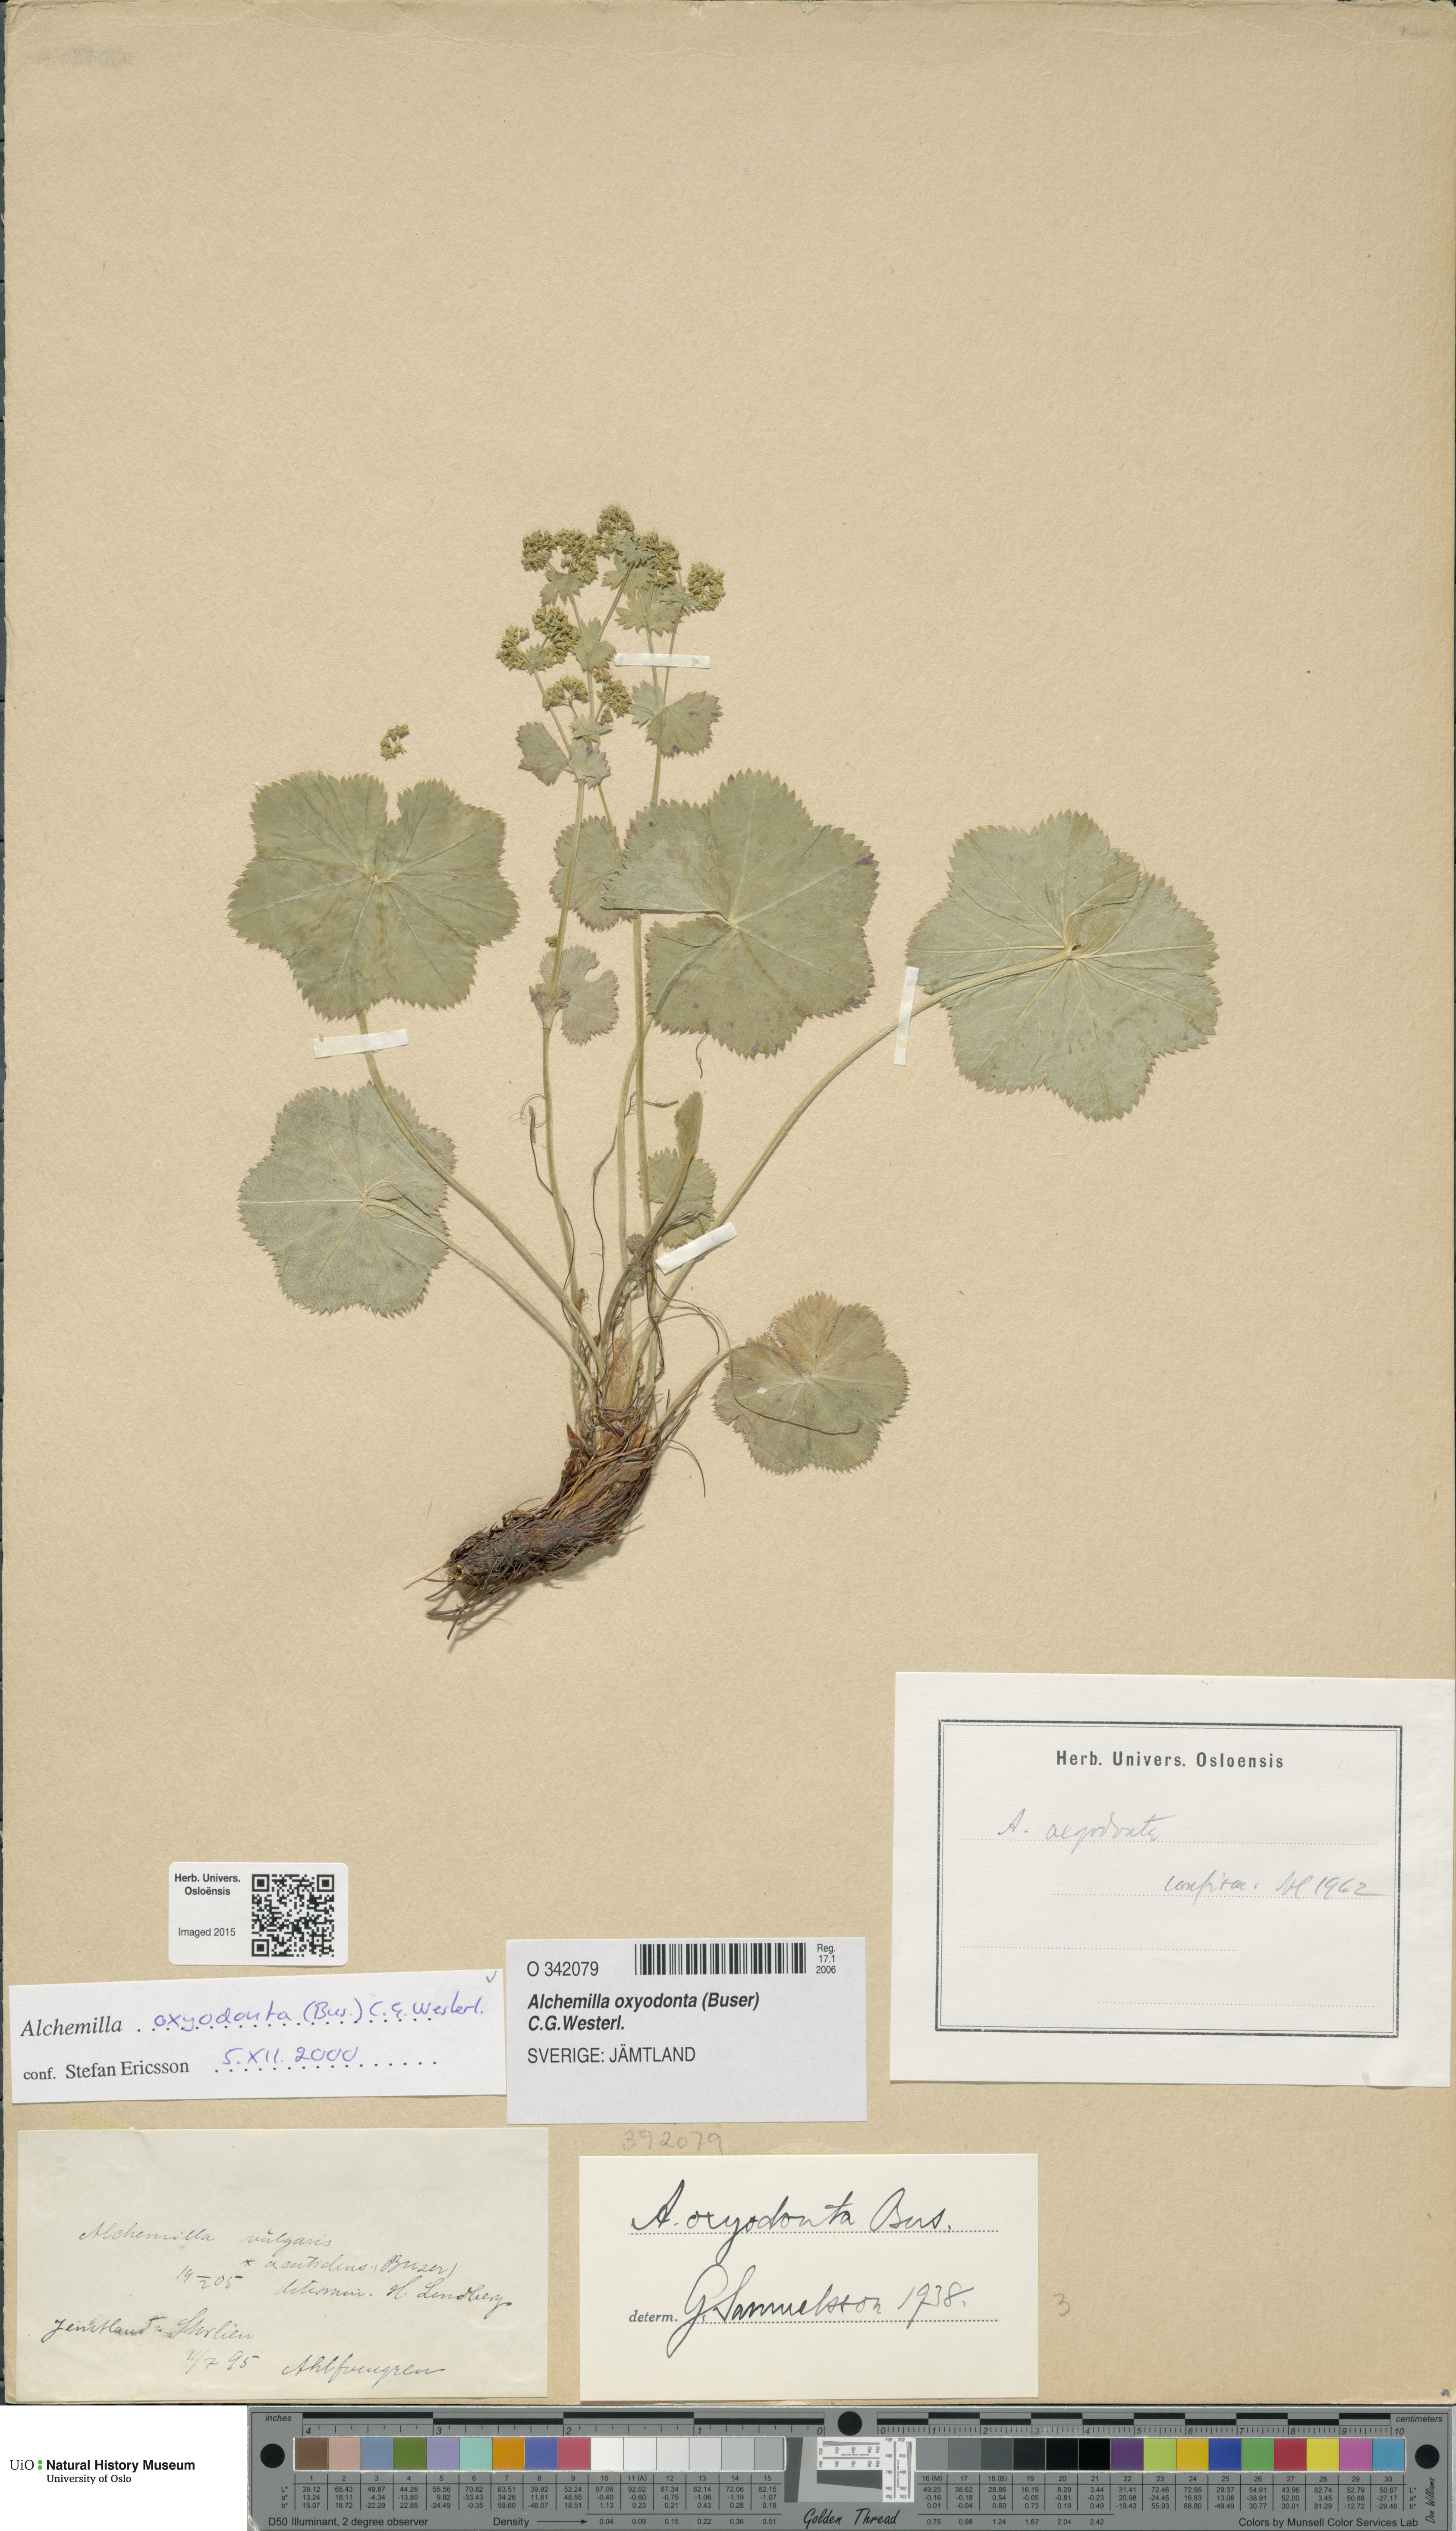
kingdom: Plantae
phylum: Tracheophyta
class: Magnoliopsida
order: Rosales
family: Rosaceae
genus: Alchemilla
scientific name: Alchemilla oxyodonta
